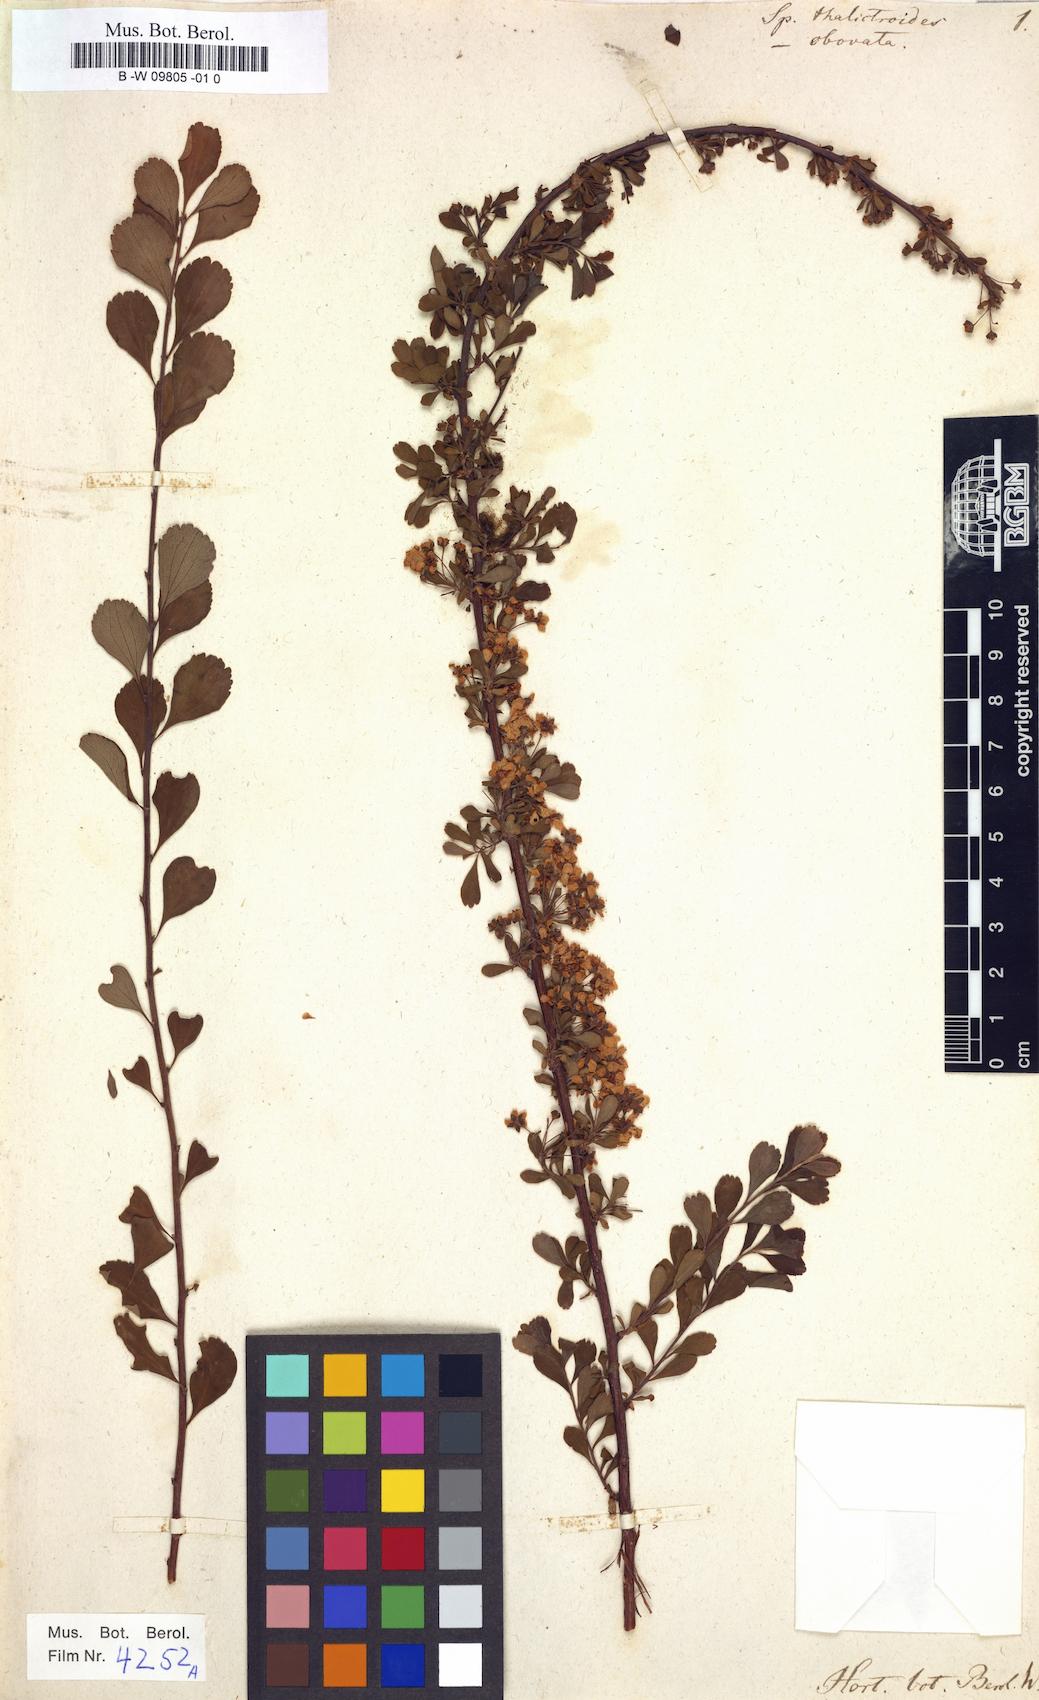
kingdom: Plantae
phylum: Tracheophyta
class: Magnoliopsida
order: Rosales
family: Rosaceae
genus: Spiraea
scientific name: Spiraea aquilegifolia
